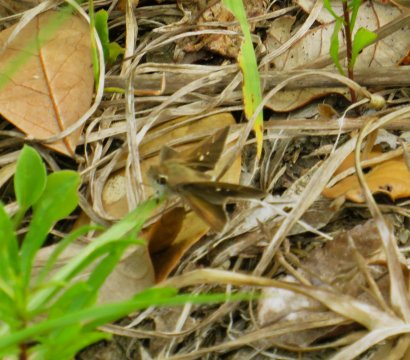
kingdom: Animalia
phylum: Arthropoda
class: Insecta
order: Lepidoptera
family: Hesperiidae
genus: Panoquina
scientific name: Panoquina ocola
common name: Ocola Skipper
